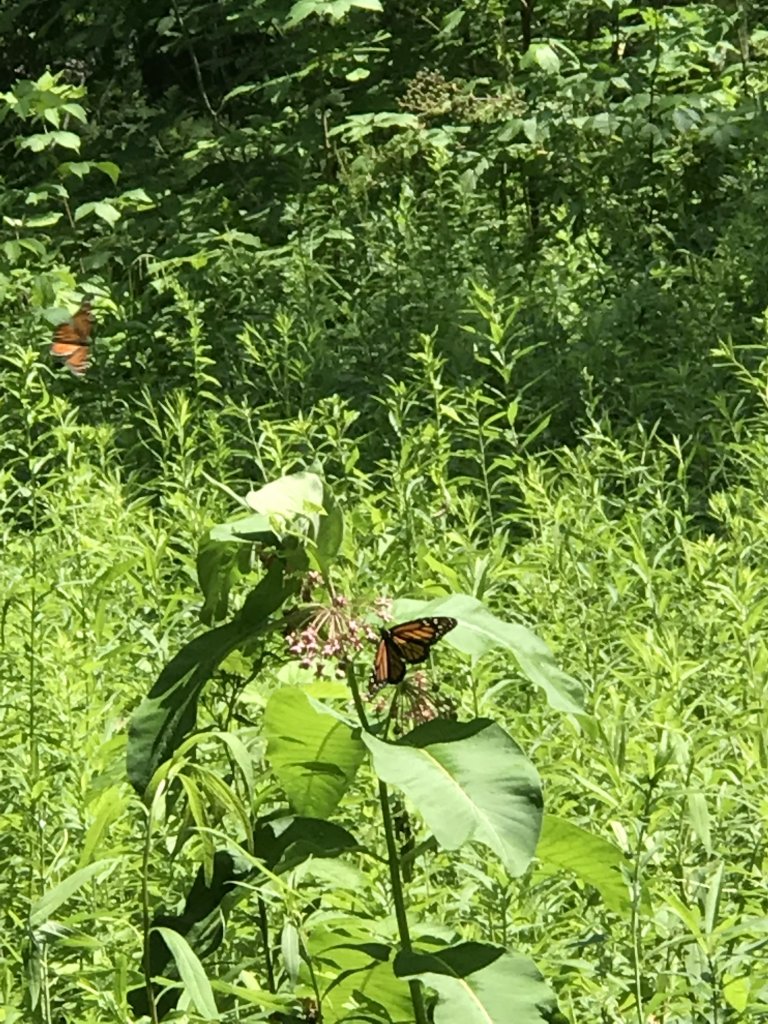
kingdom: Animalia
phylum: Arthropoda
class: Insecta
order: Lepidoptera
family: Nymphalidae
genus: Danaus
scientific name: Danaus plexippus
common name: Monarch
